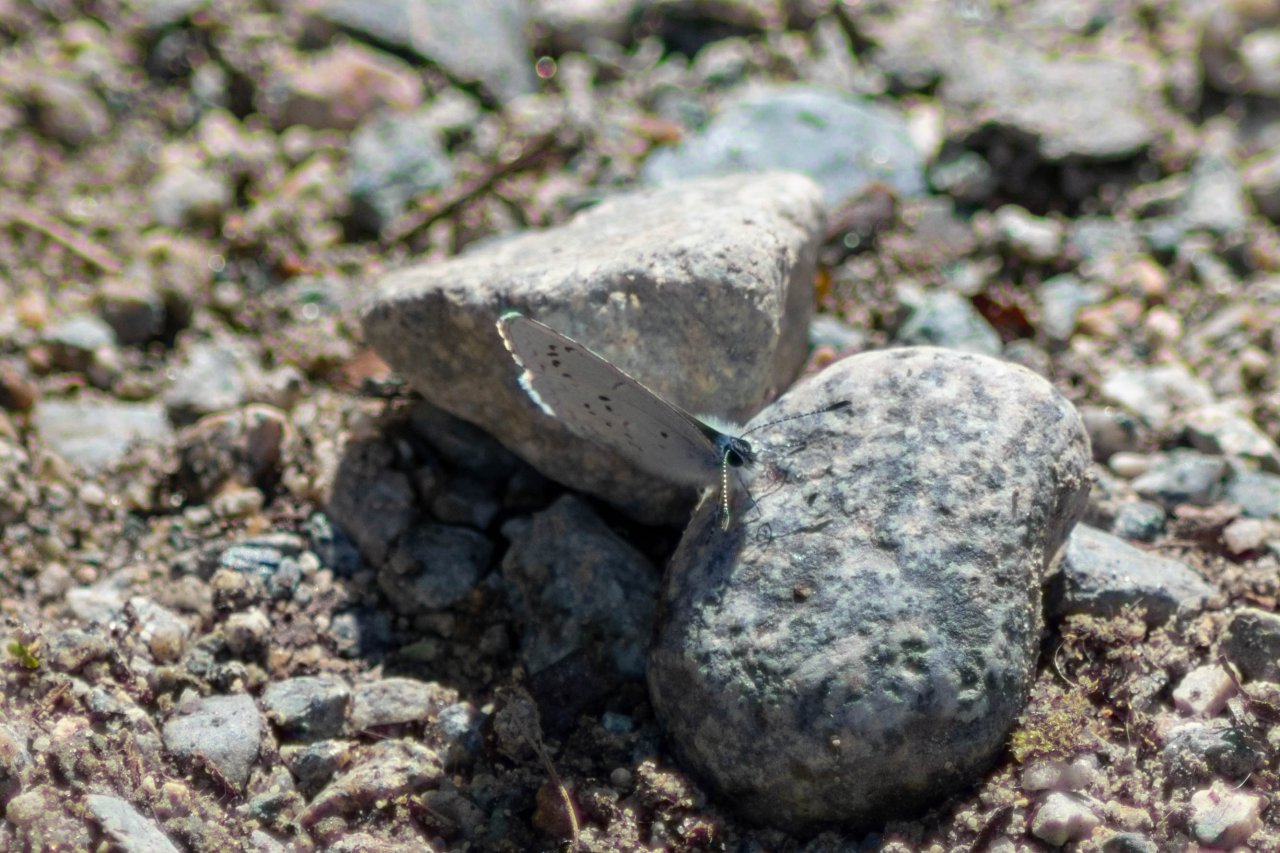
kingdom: Animalia
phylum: Arthropoda
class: Insecta
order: Lepidoptera
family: Lycaenidae
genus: Celastrina
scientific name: Celastrina ladon
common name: Echo Azure
